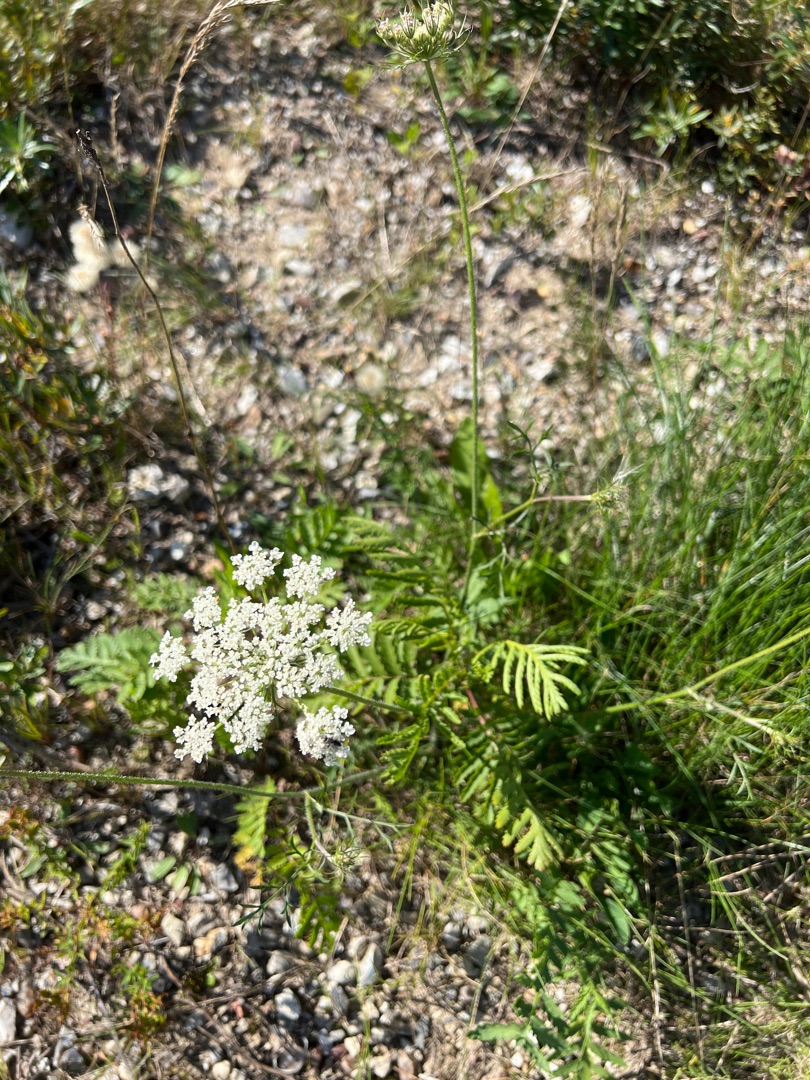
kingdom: Plantae
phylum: Tracheophyta
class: Magnoliopsida
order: Apiales
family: Apiaceae
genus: Daucus
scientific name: Daucus carota
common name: Gulerod
